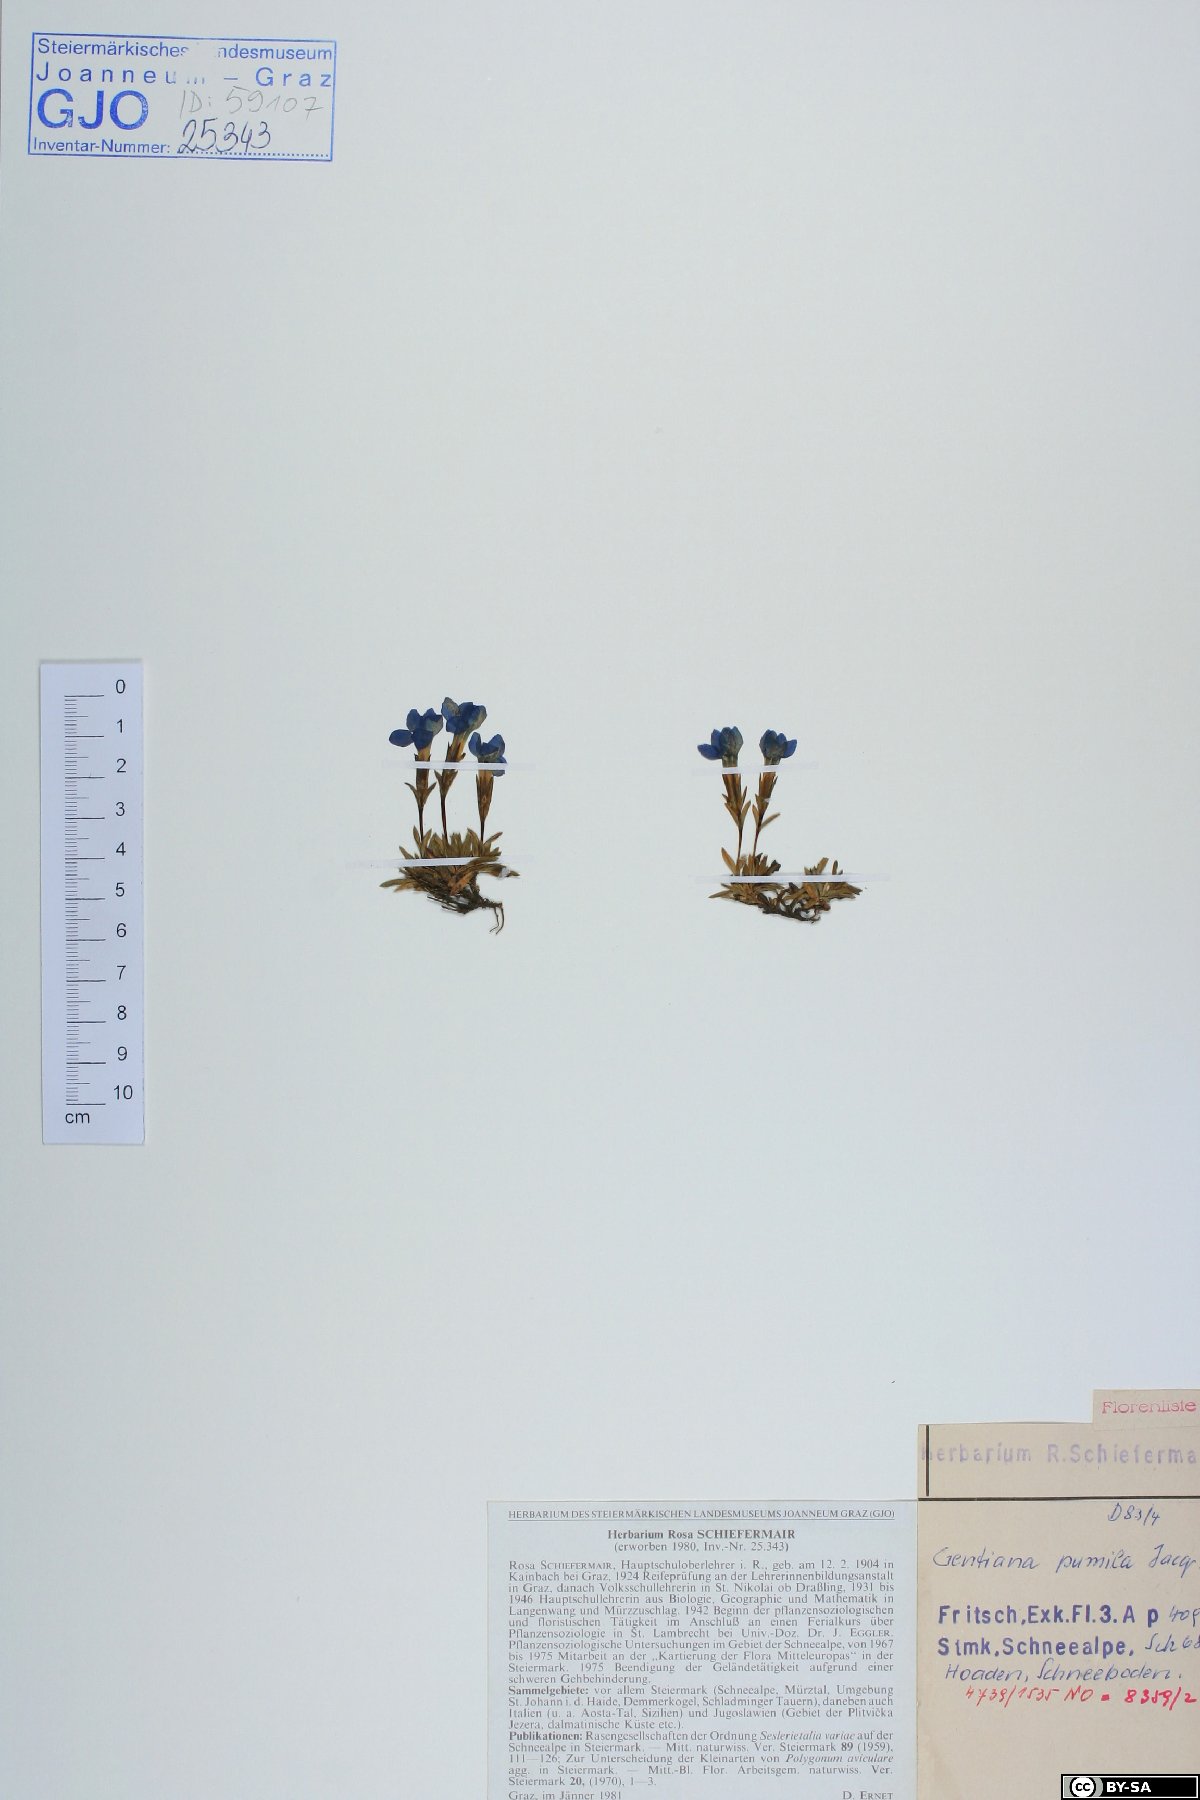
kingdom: Plantae
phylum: Tracheophyta
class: Magnoliopsida
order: Gentianales
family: Gentianaceae
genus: Gentiana
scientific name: Gentiana pumila
